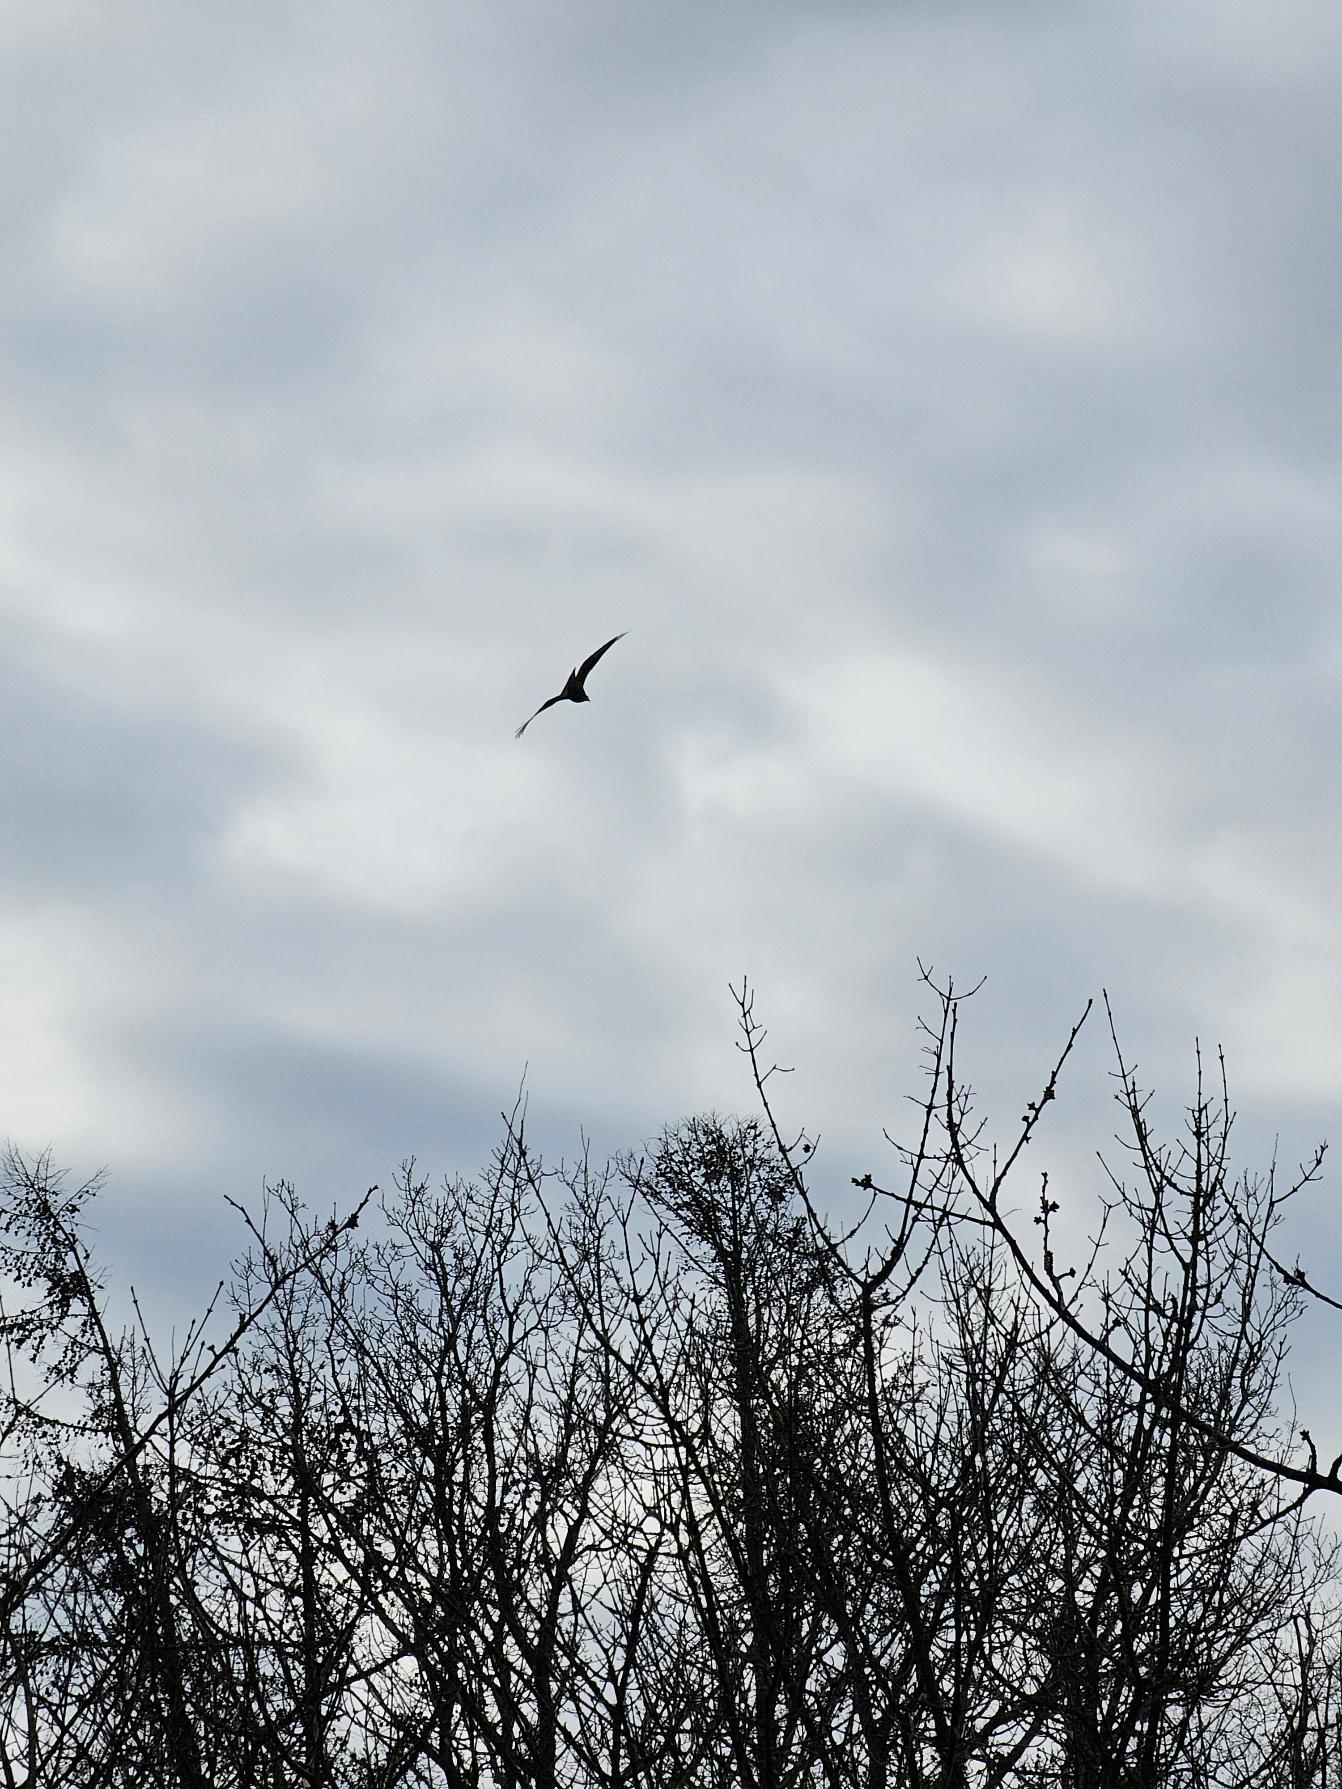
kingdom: Animalia
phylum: Chordata
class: Aves
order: Accipitriformes
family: Accipitridae
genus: Milvus
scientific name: Milvus milvus
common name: Rød glente
